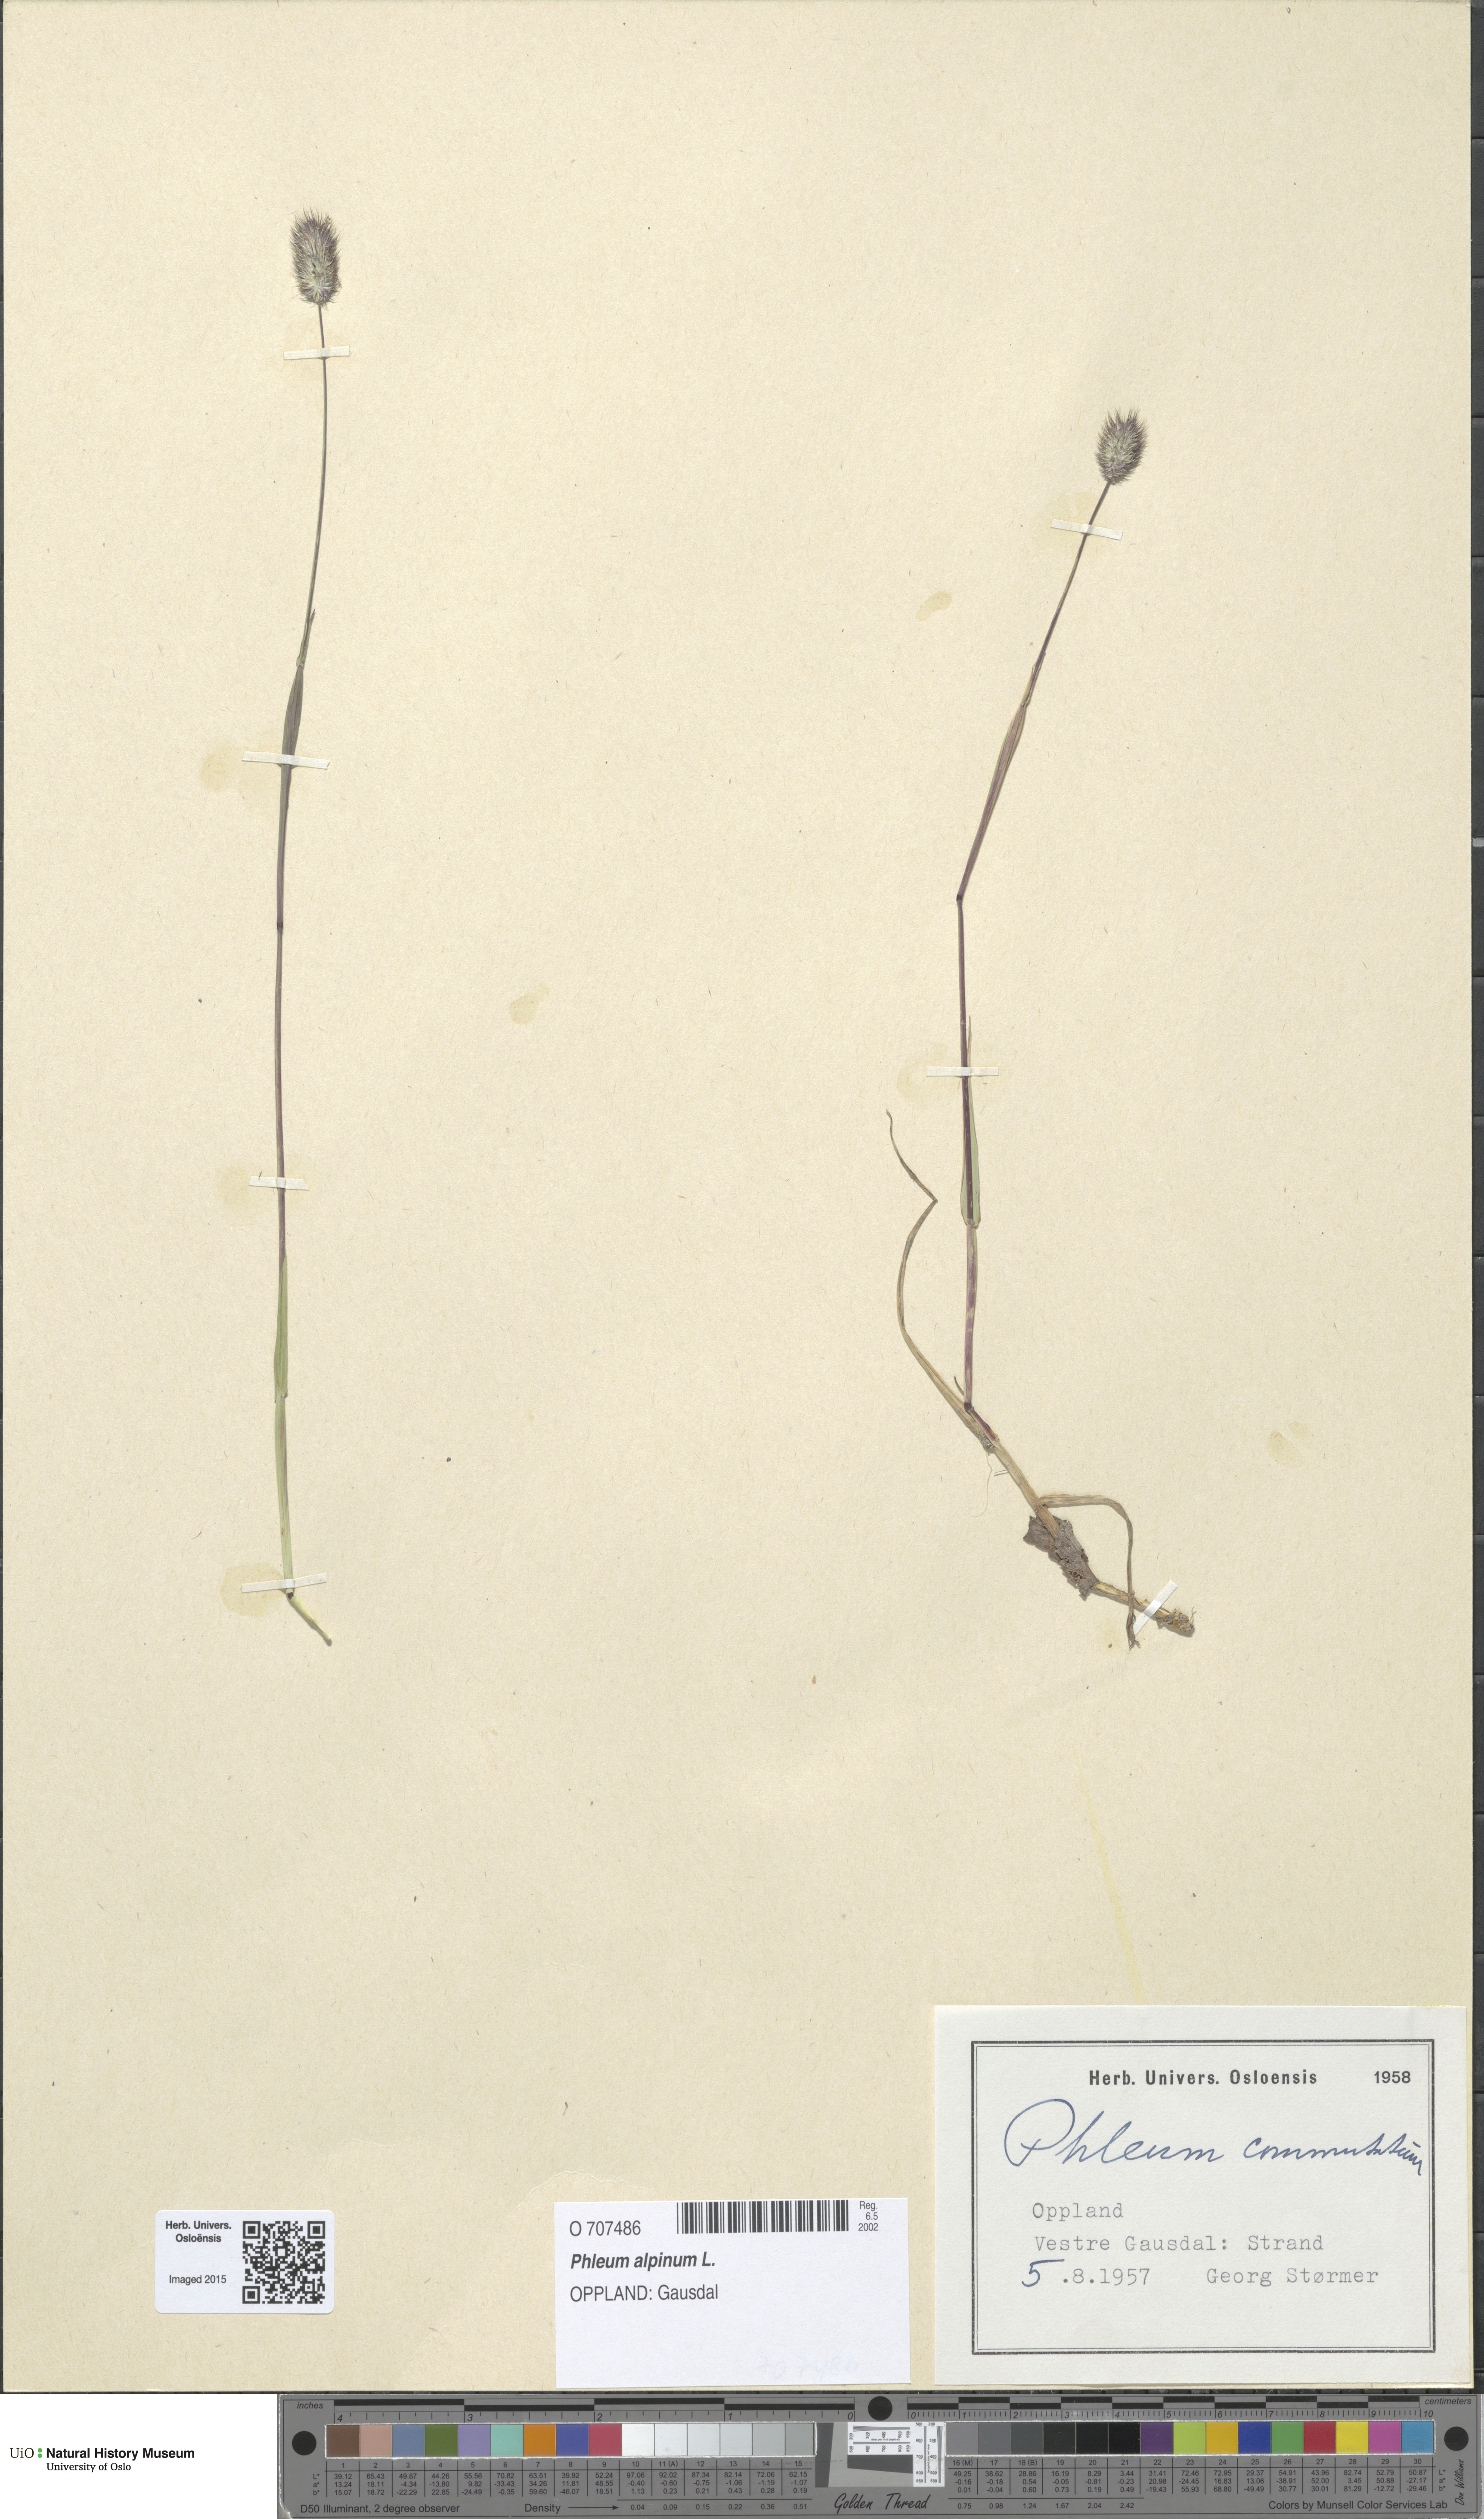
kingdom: Plantae
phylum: Tracheophyta
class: Liliopsida
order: Poales
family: Poaceae
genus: Phleum
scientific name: Phleum alpinum
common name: Alpine cat's-tail
